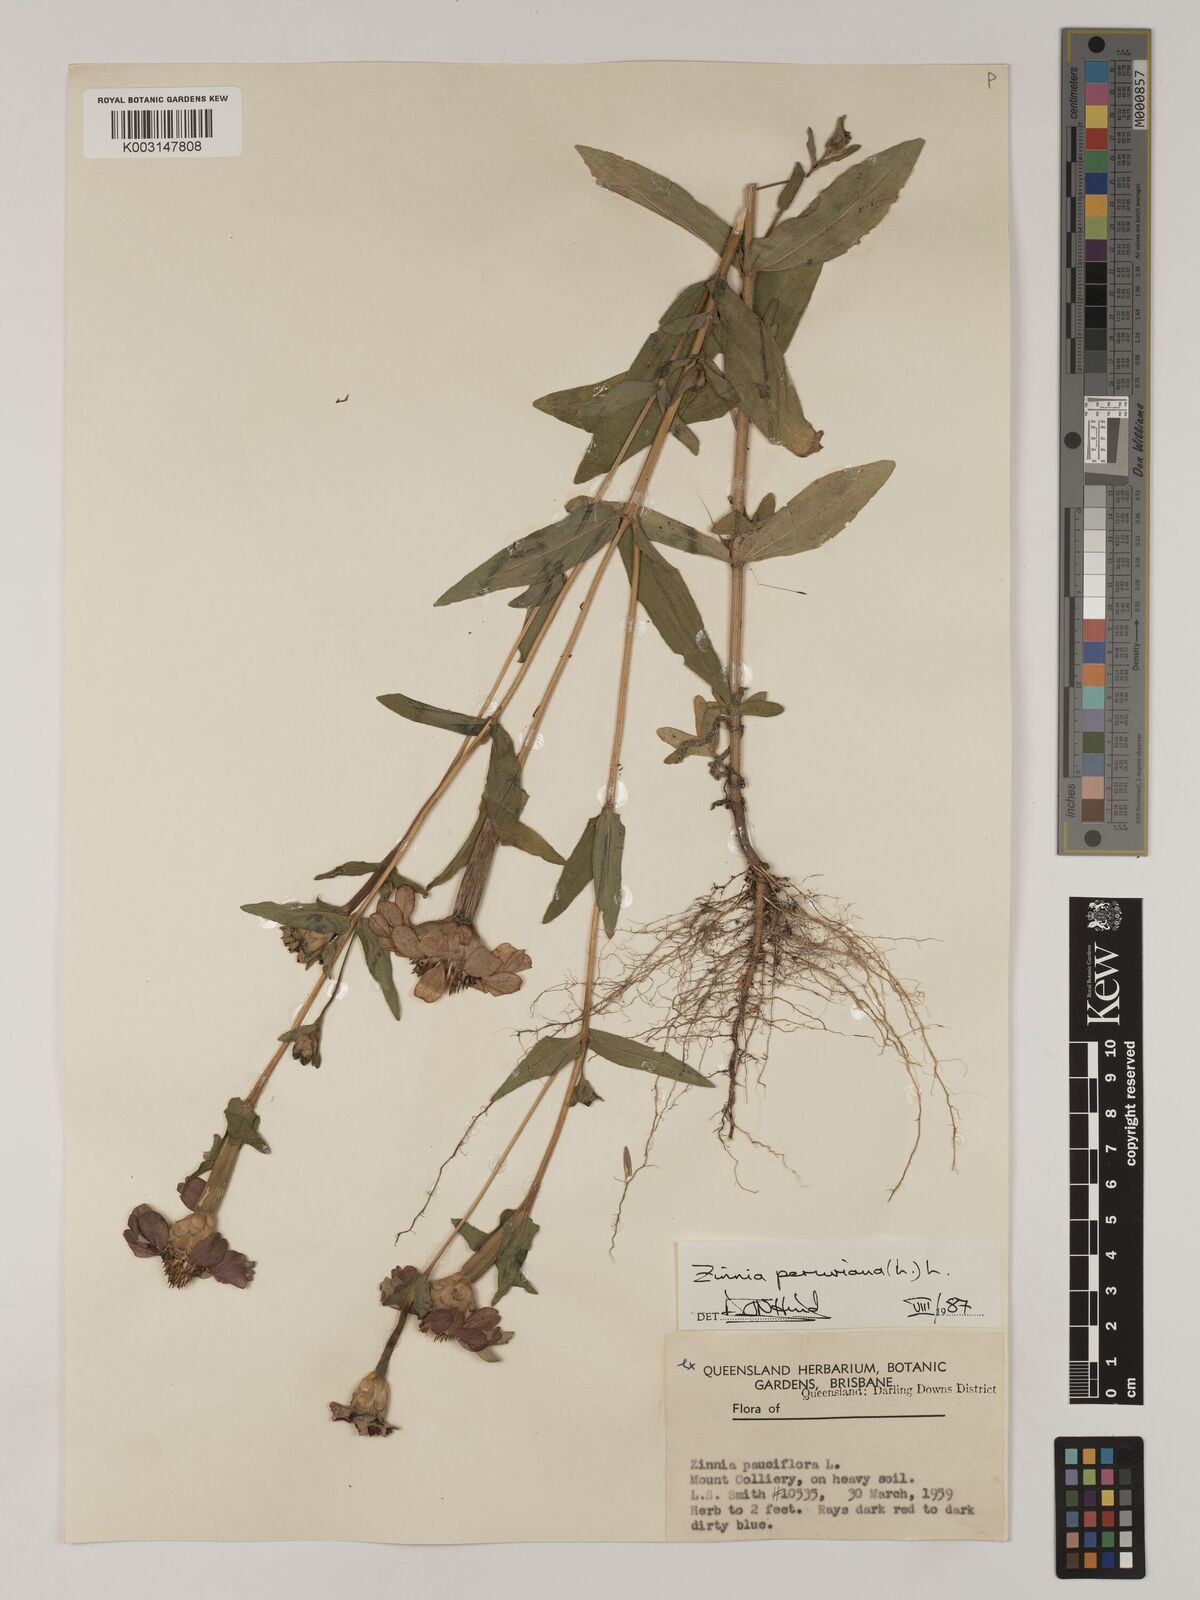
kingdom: Plantae
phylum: Tracheophyta
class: Magnoliopsida
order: Asterales
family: Asteraceae
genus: Zinnia
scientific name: Zinnia peruviana
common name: Peruvian zinnia
